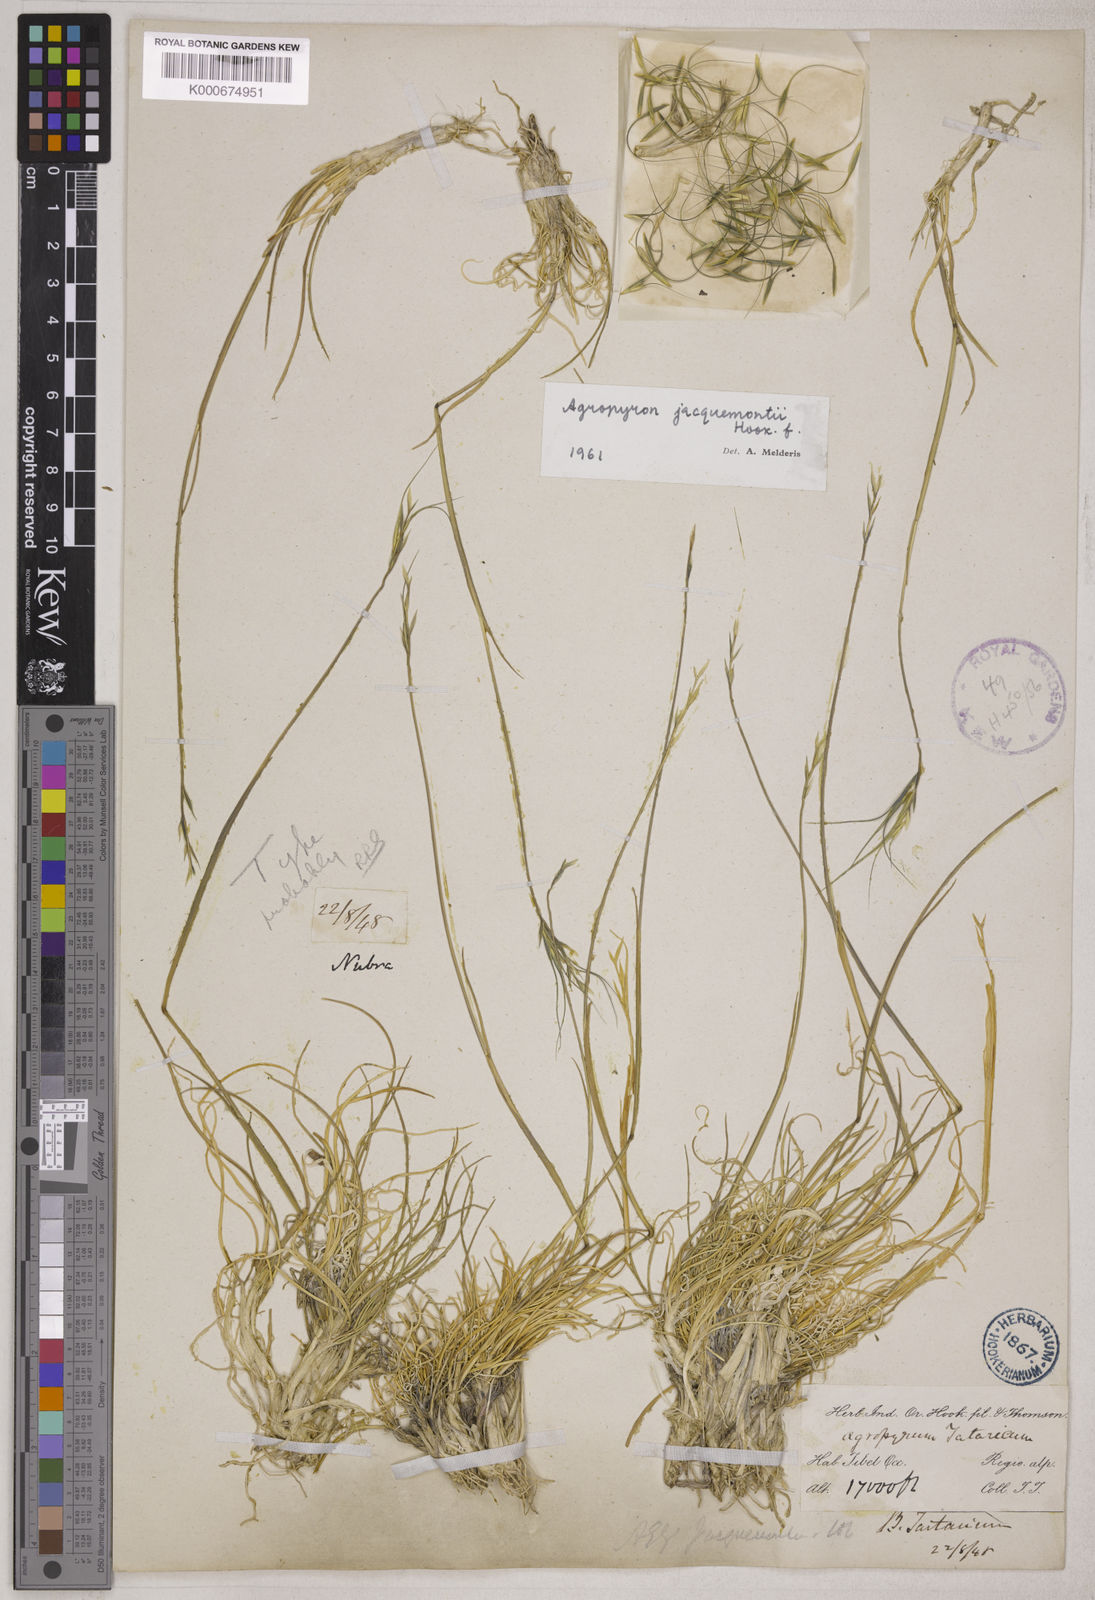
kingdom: Plantae
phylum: Tracheophyta
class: Liliopsida
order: Poales
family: Poaceae
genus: Elymus
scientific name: Elymus jacquemontii
